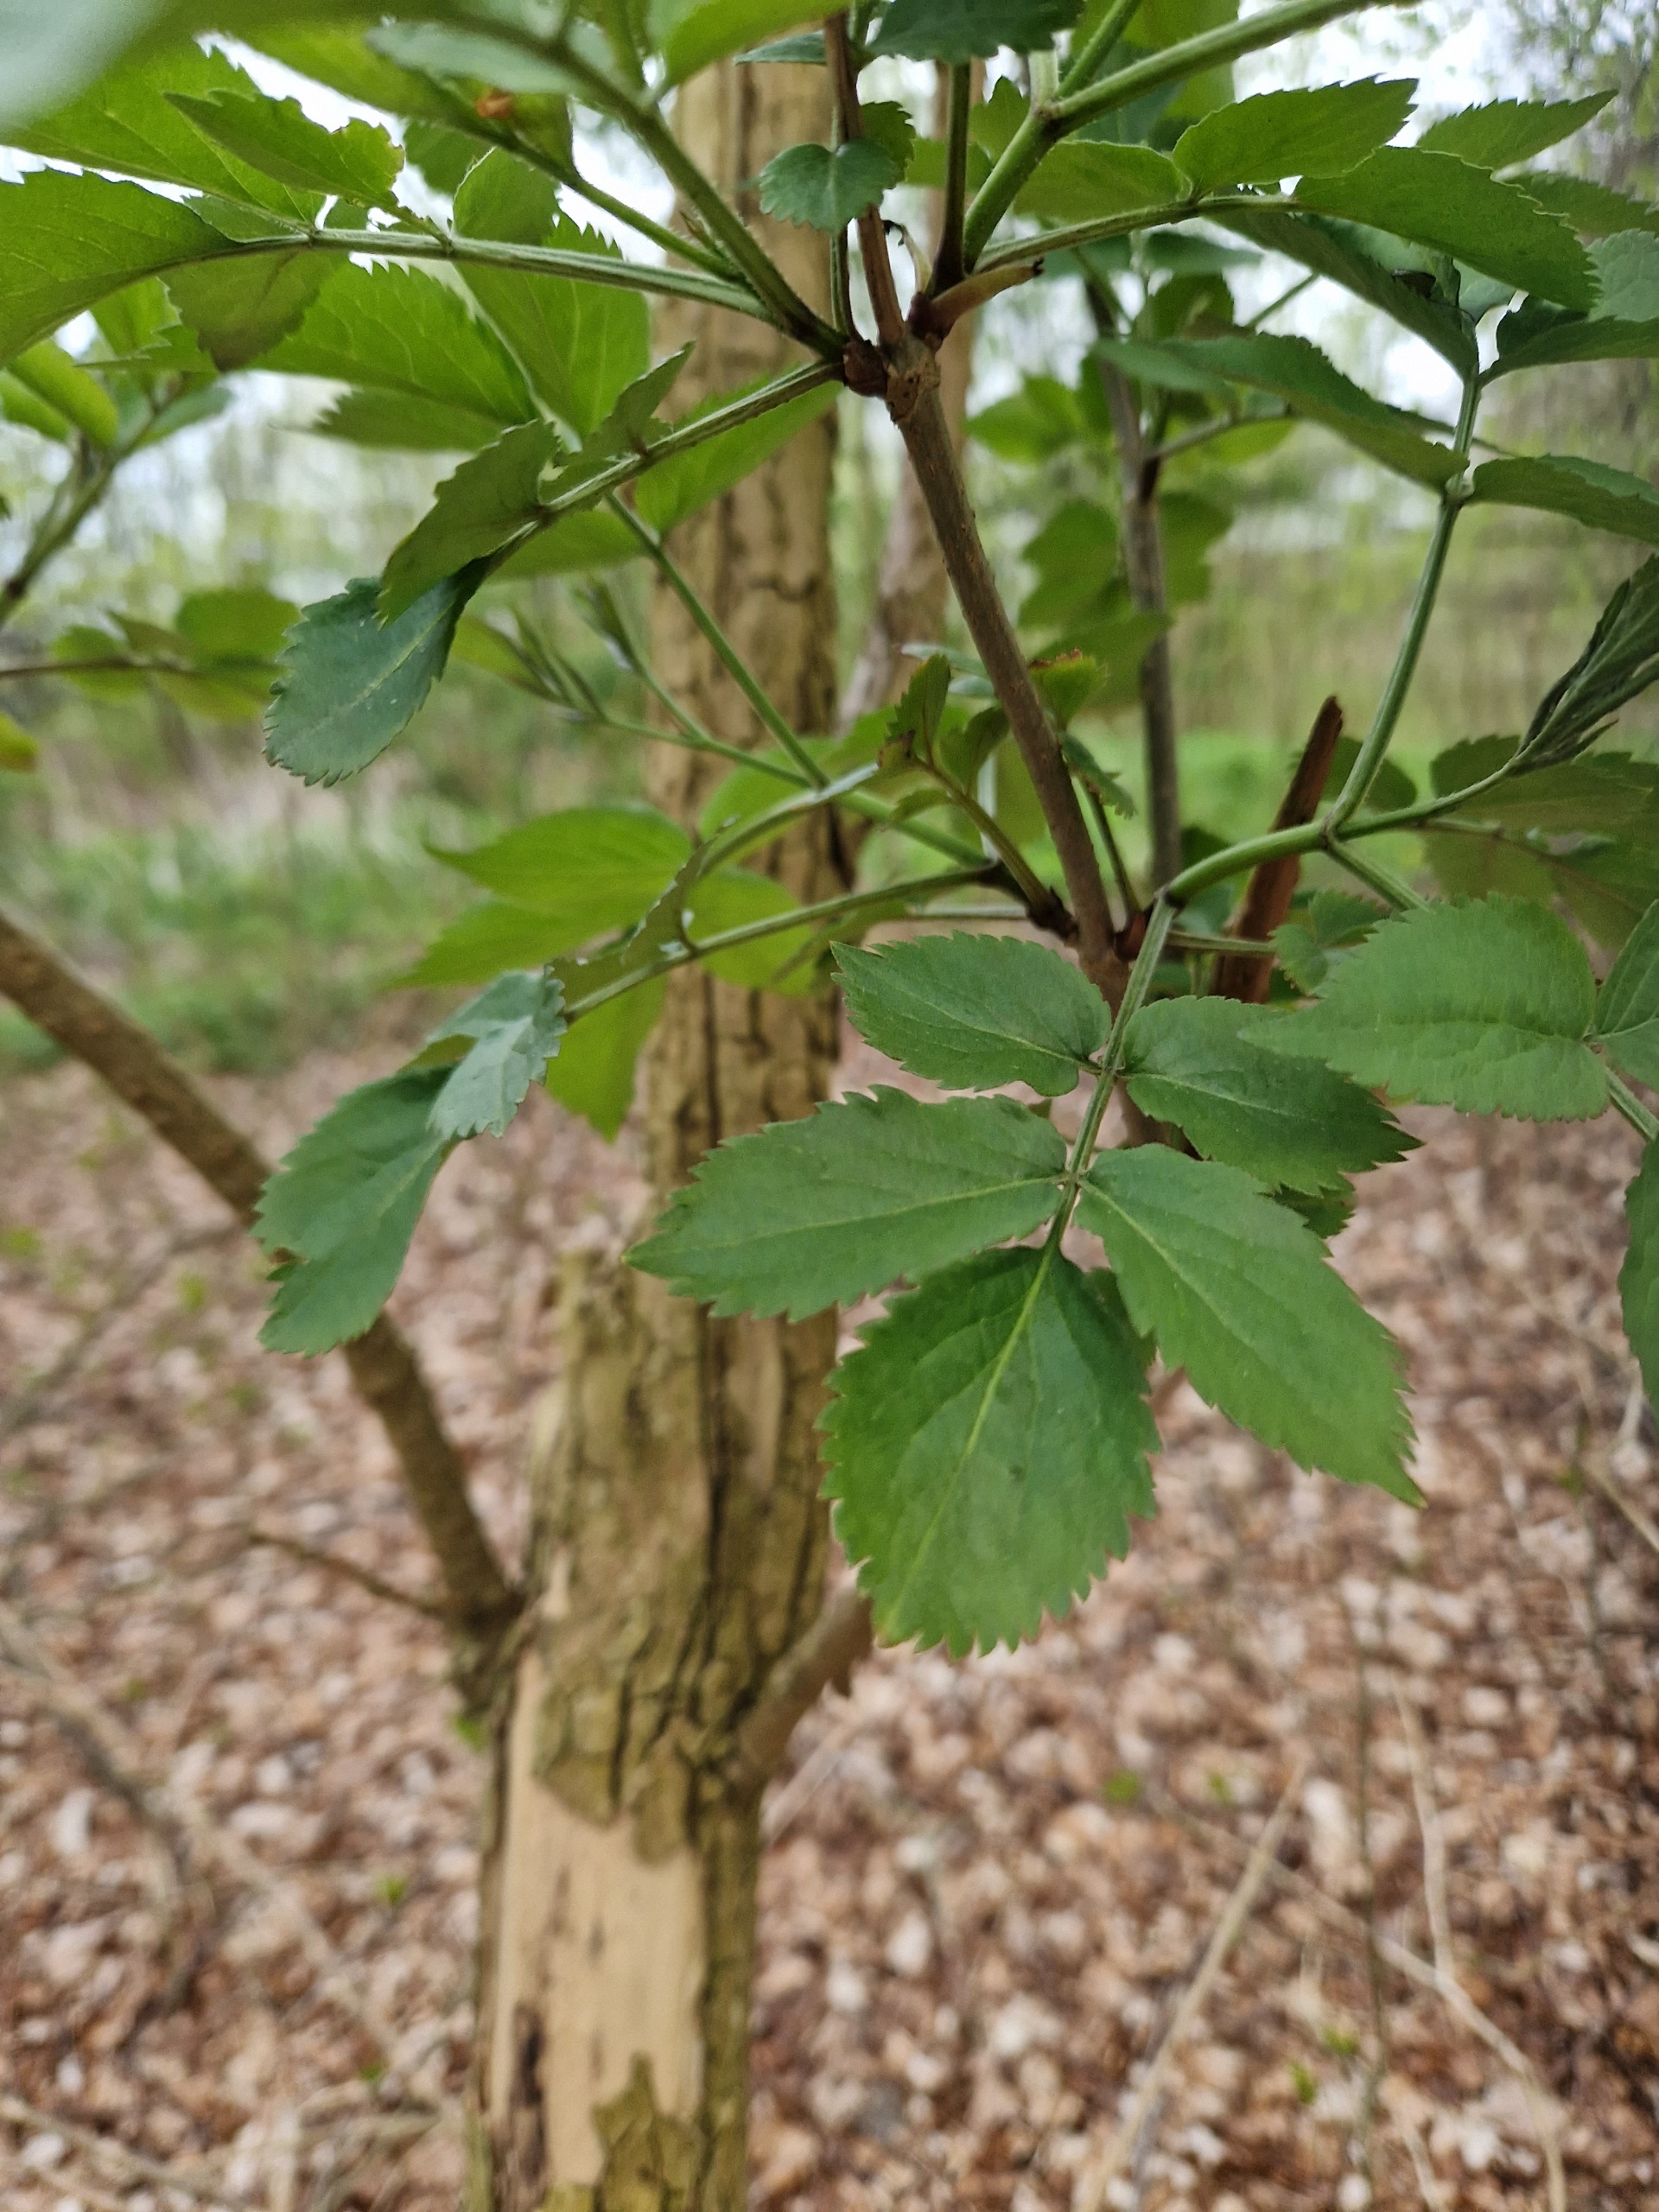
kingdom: Plantae
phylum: Tracheophyta
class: Magnoliopsida
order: Dipsacales
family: Viburnaceae
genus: Sambucus
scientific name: Sambucus nigra
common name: Almindelig hyld
